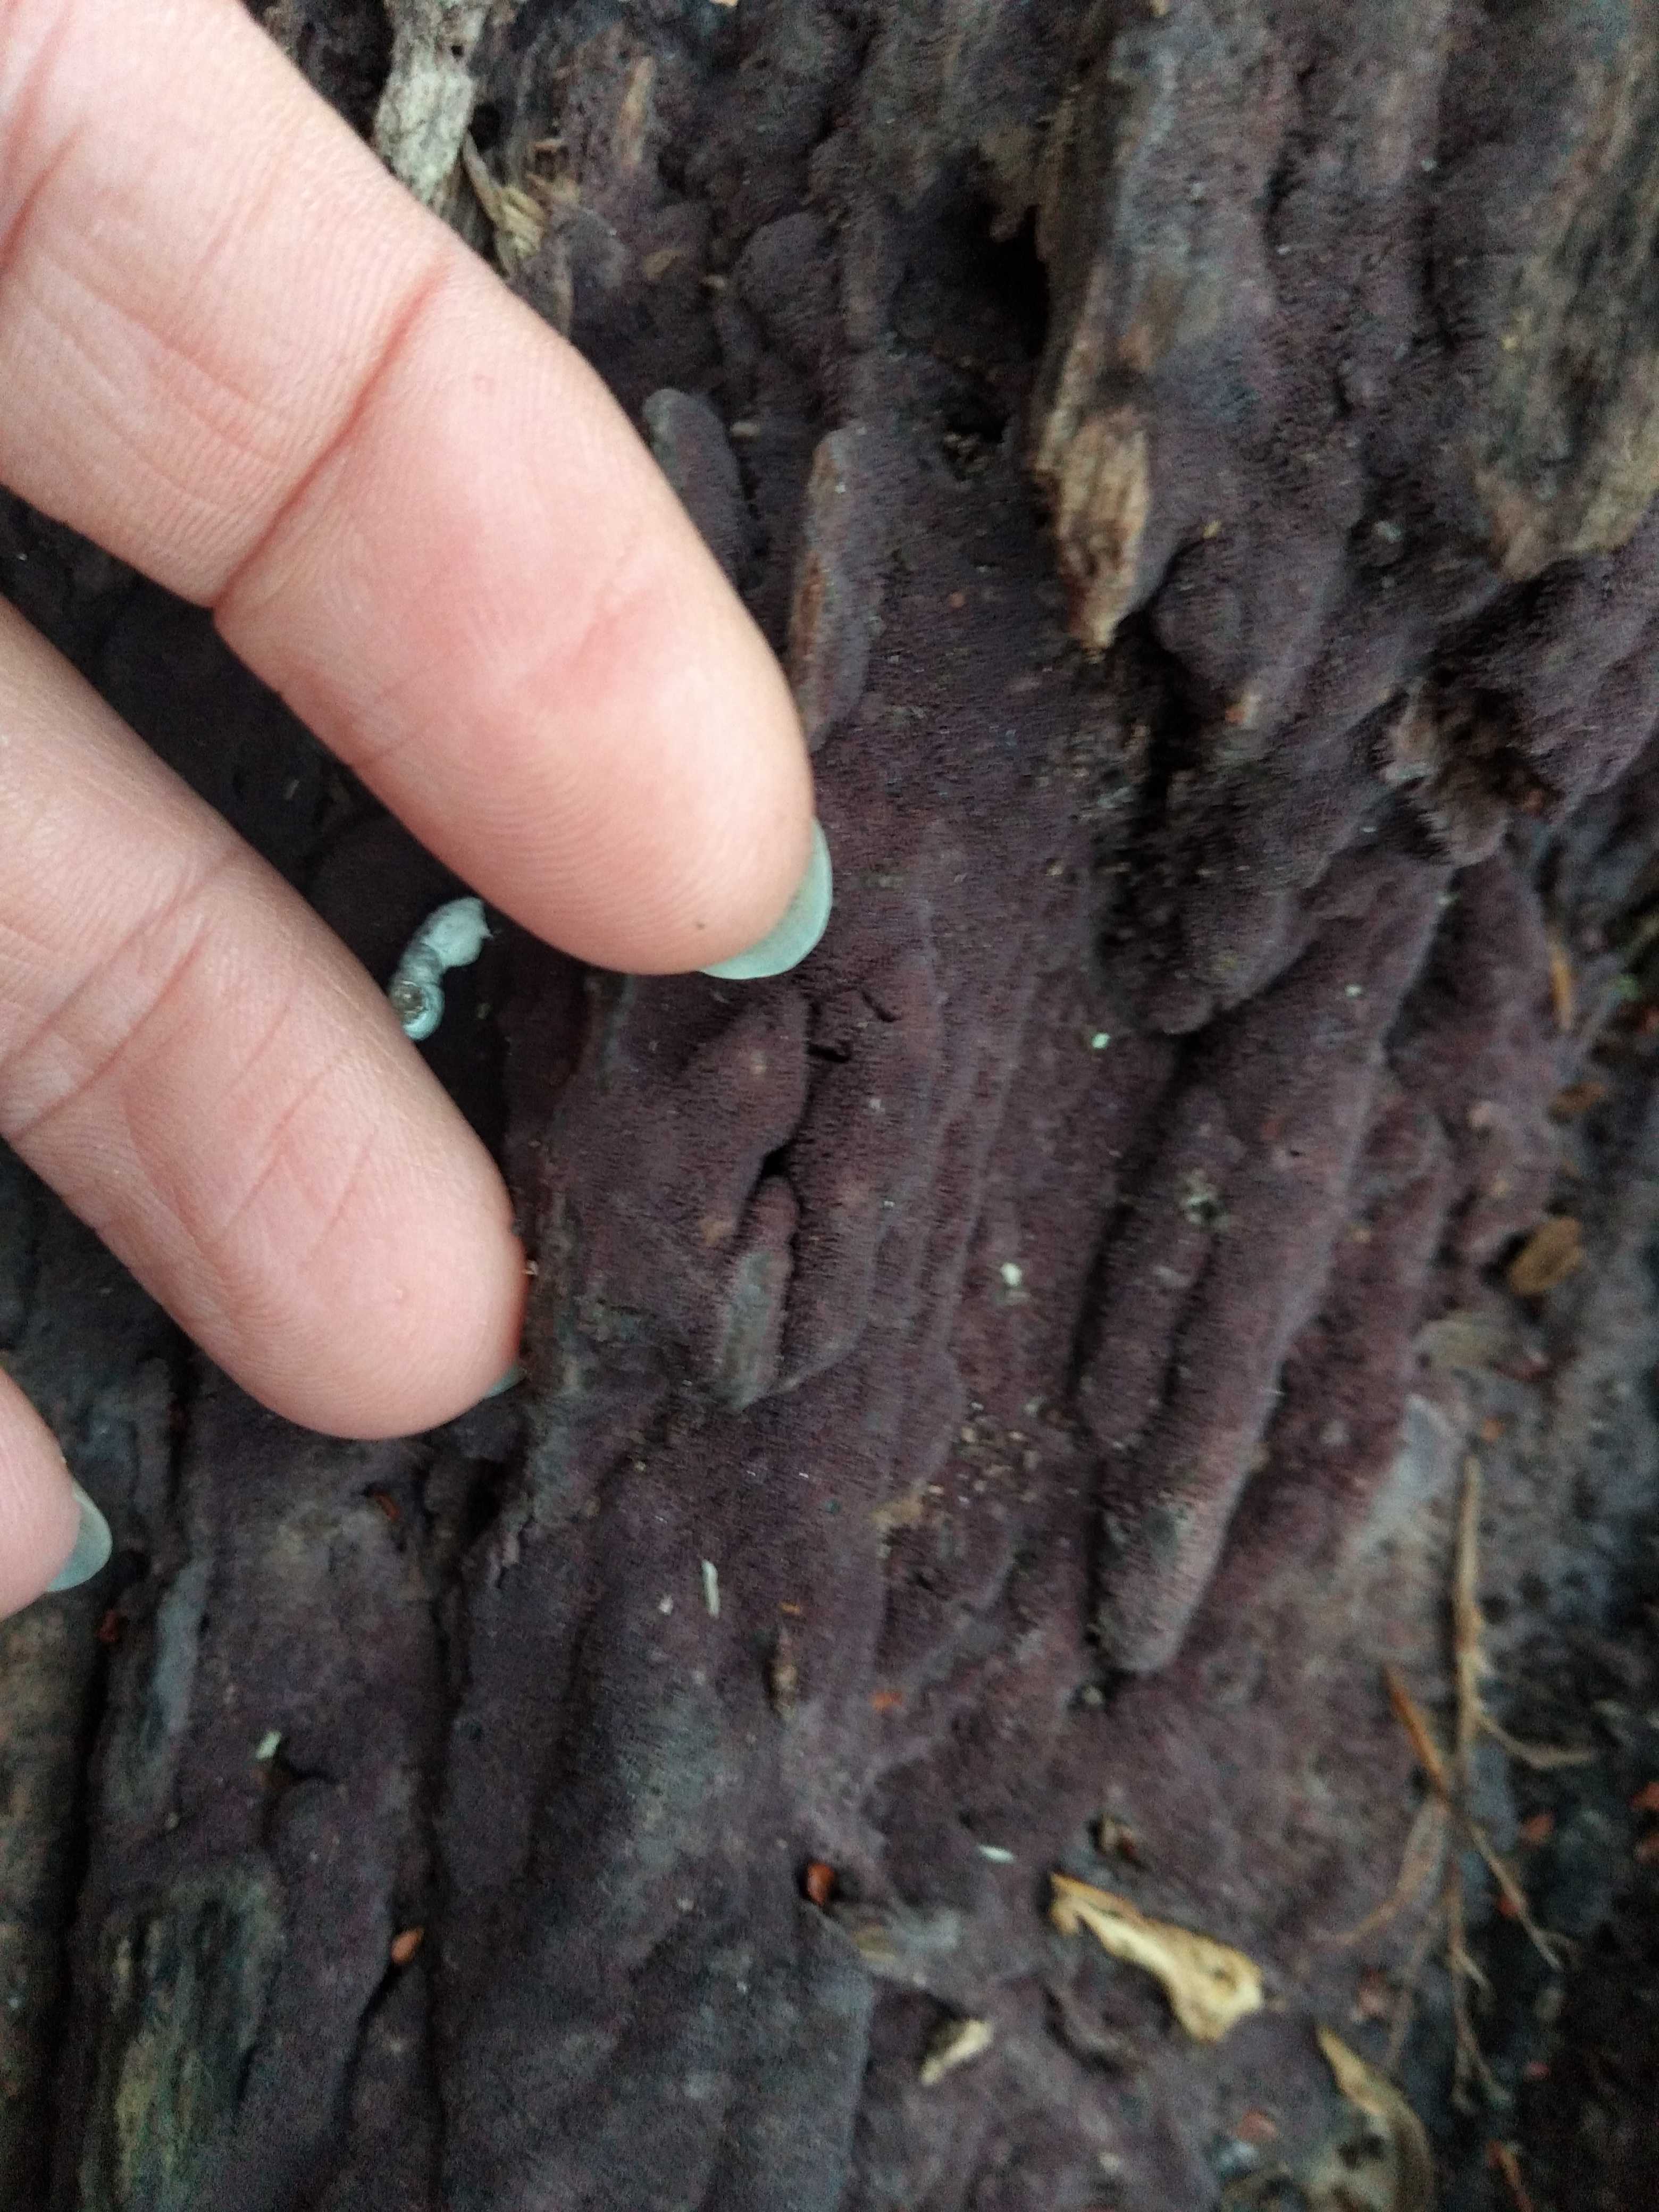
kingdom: Fungi
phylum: Basidiomycota
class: Agaricomycetes
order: Polyporales
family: Irpicaceae
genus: Ceriporia
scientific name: Ceriporia excelsa
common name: lilla voksporesvamp
